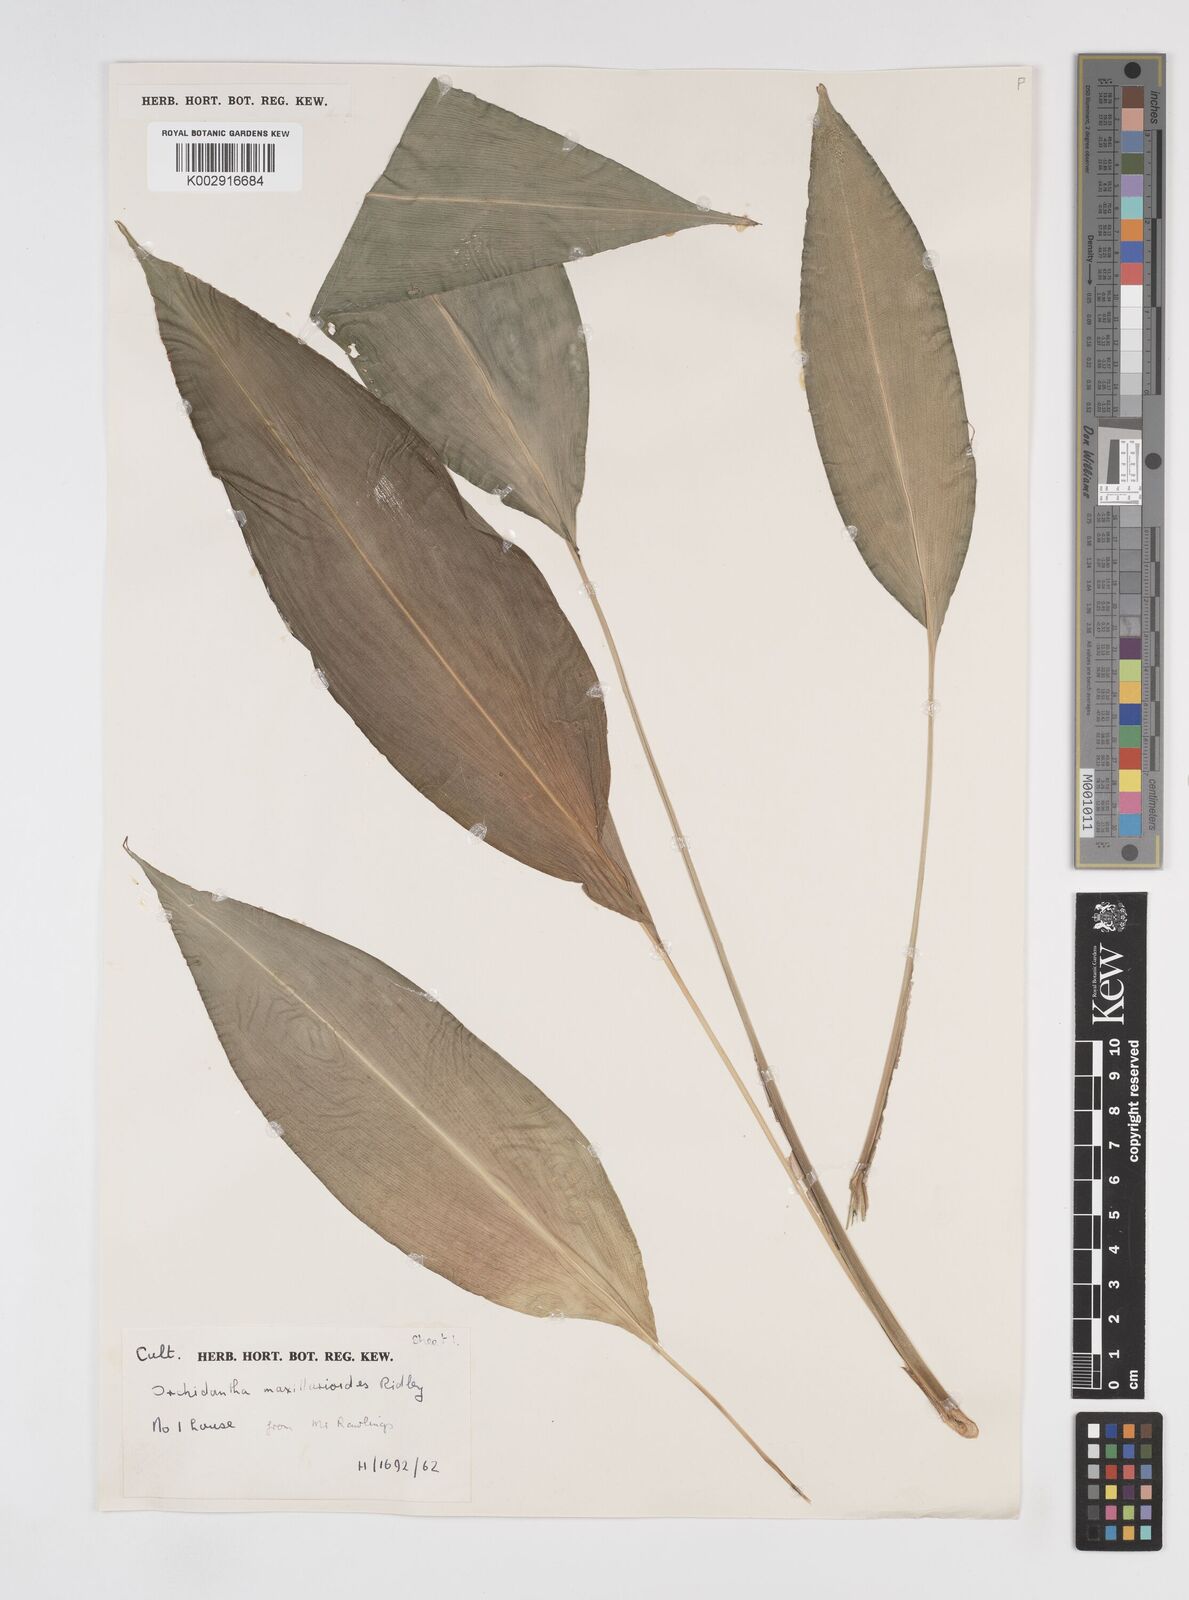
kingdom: Plantae
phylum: Tracheophyta
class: Liliopsida
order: Zingiberales
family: Lowiaceae
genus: Orchidantha
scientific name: Orchidantha maxillarioides
